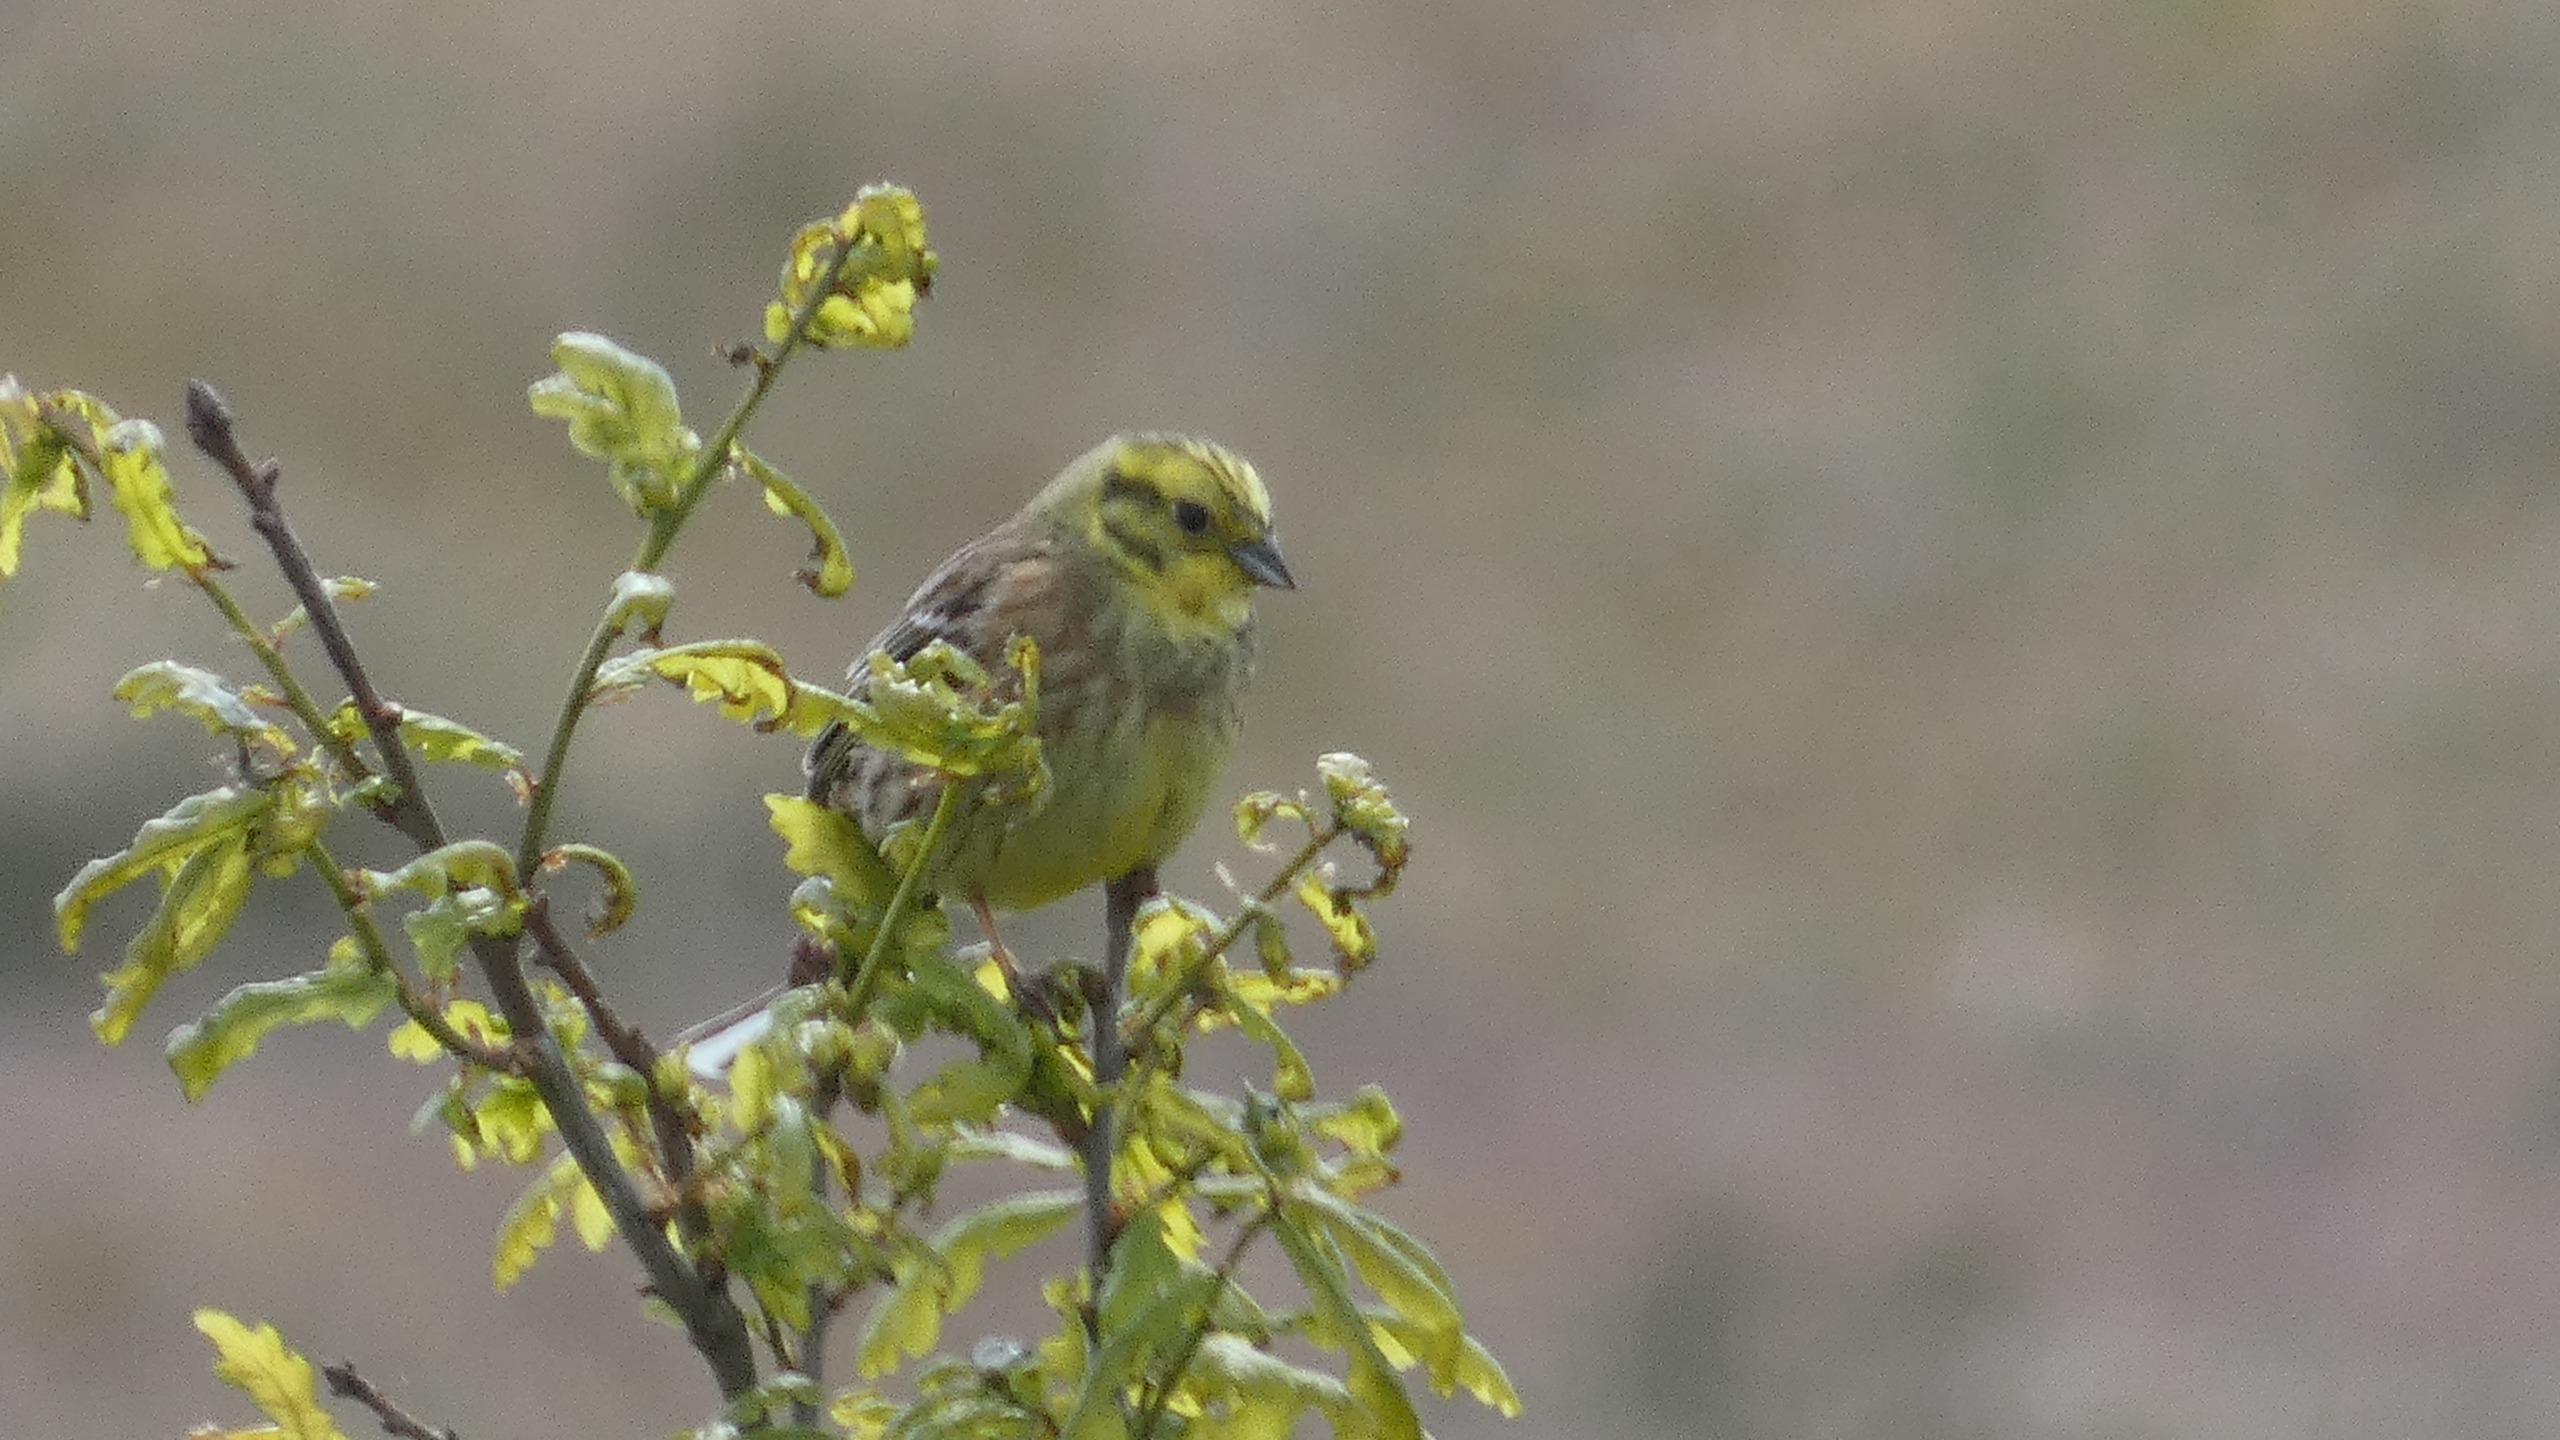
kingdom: Animalia
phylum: Chordata
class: Aves
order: Passeriformes
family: Emberizidae
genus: Emberiza
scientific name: Emberiza citrinella
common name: Gulspurv
